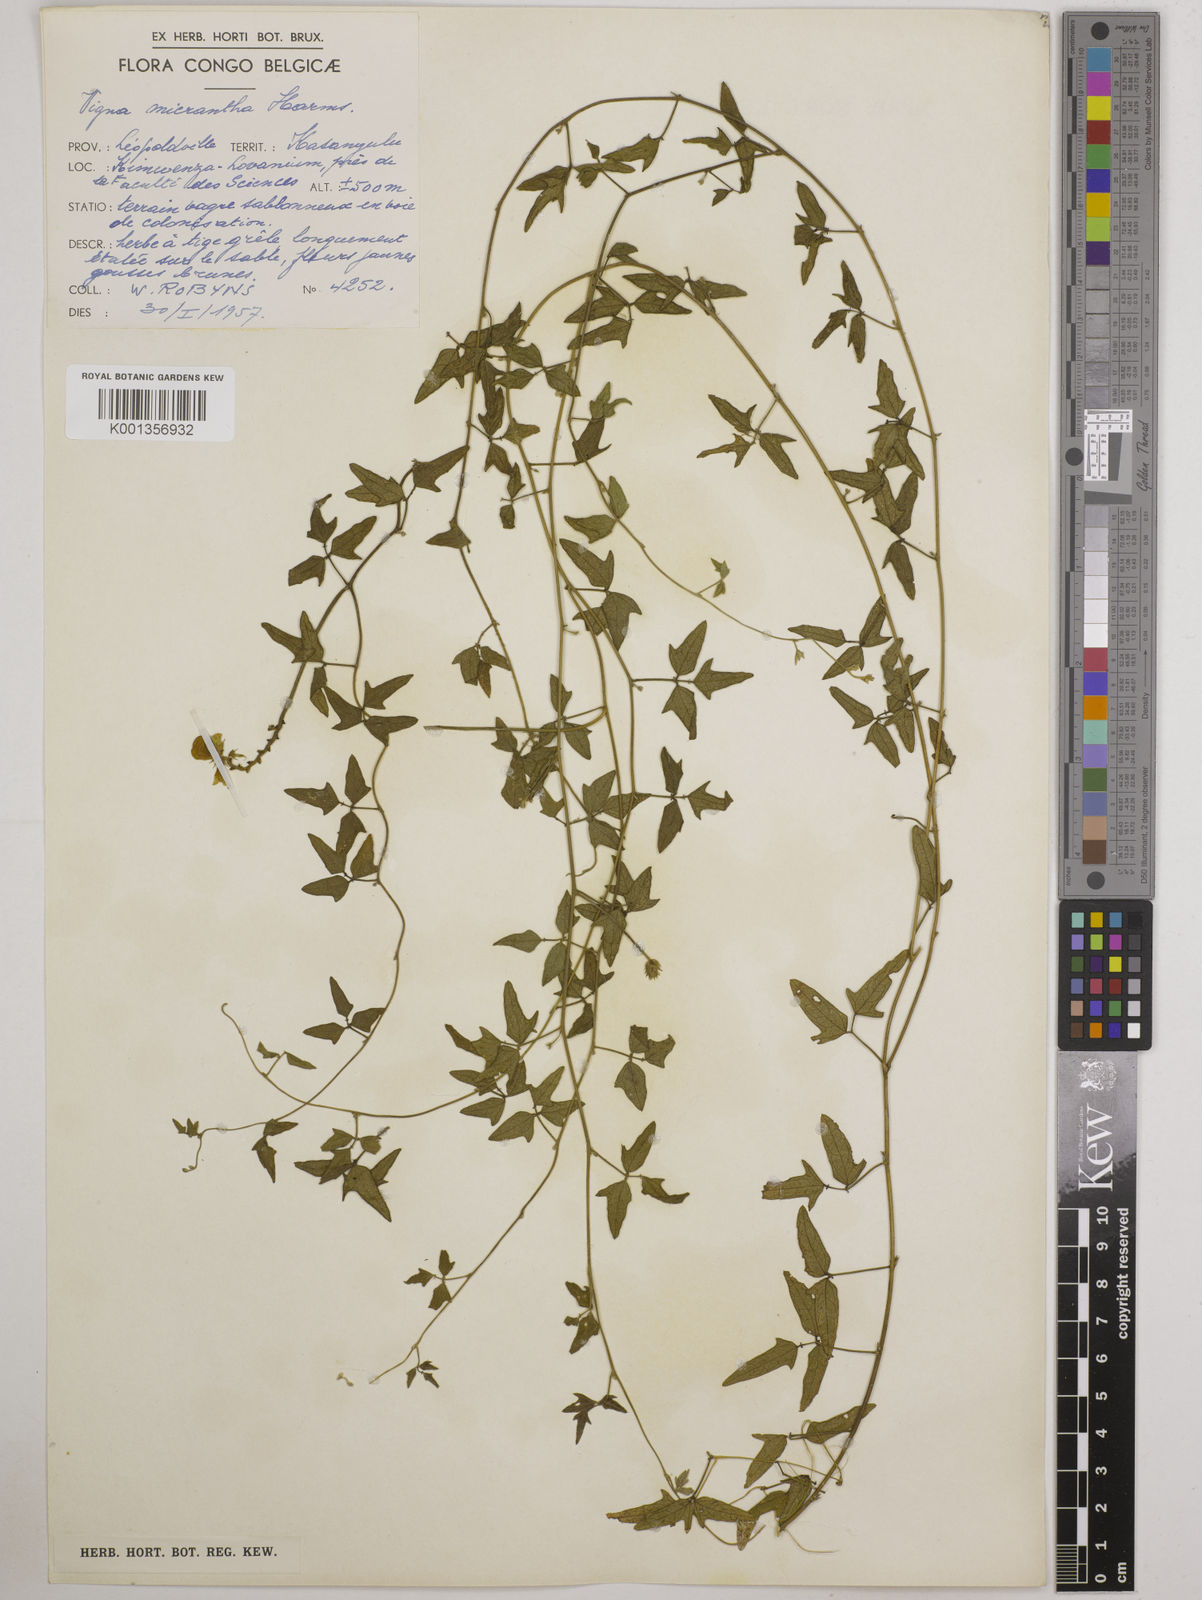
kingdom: Plantae
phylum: Tracheophyta
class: Magnoliopsida
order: Fabales
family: Fabaceae
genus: Vigna
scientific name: Vigna comosa
